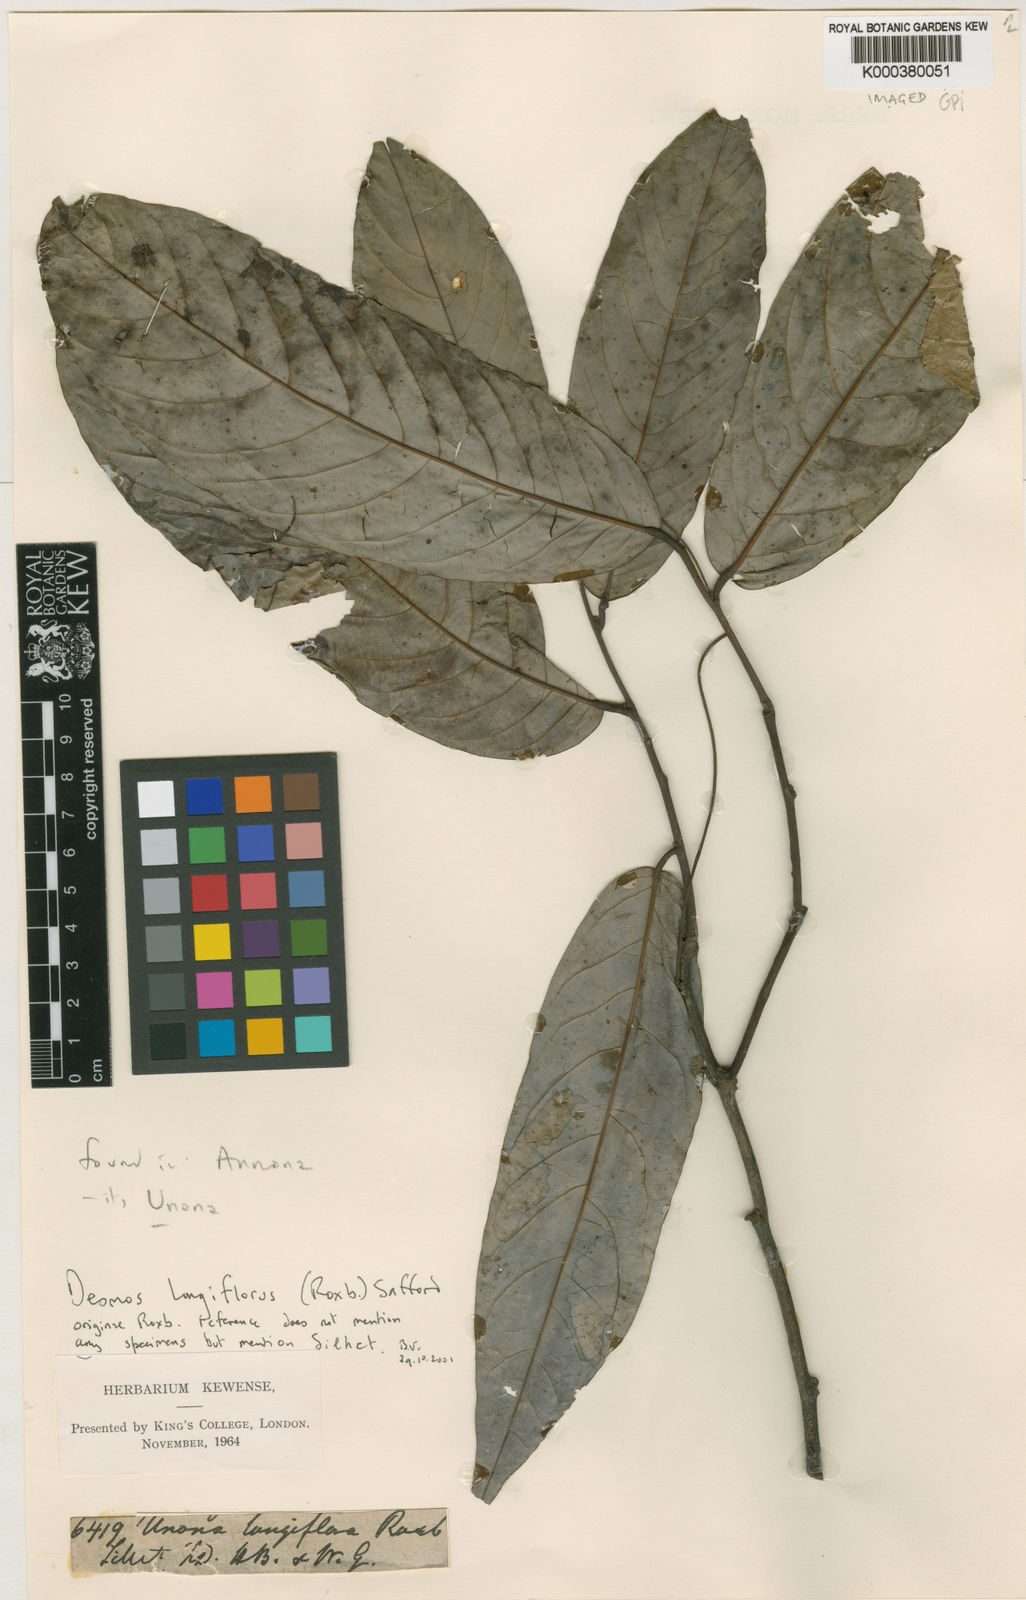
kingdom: Plantae
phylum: Tracheophyta
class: Magnoliopsida
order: Magnoliales
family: Annonaceae
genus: Dasymaschalon
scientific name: Dasymaschalon longiflorum
